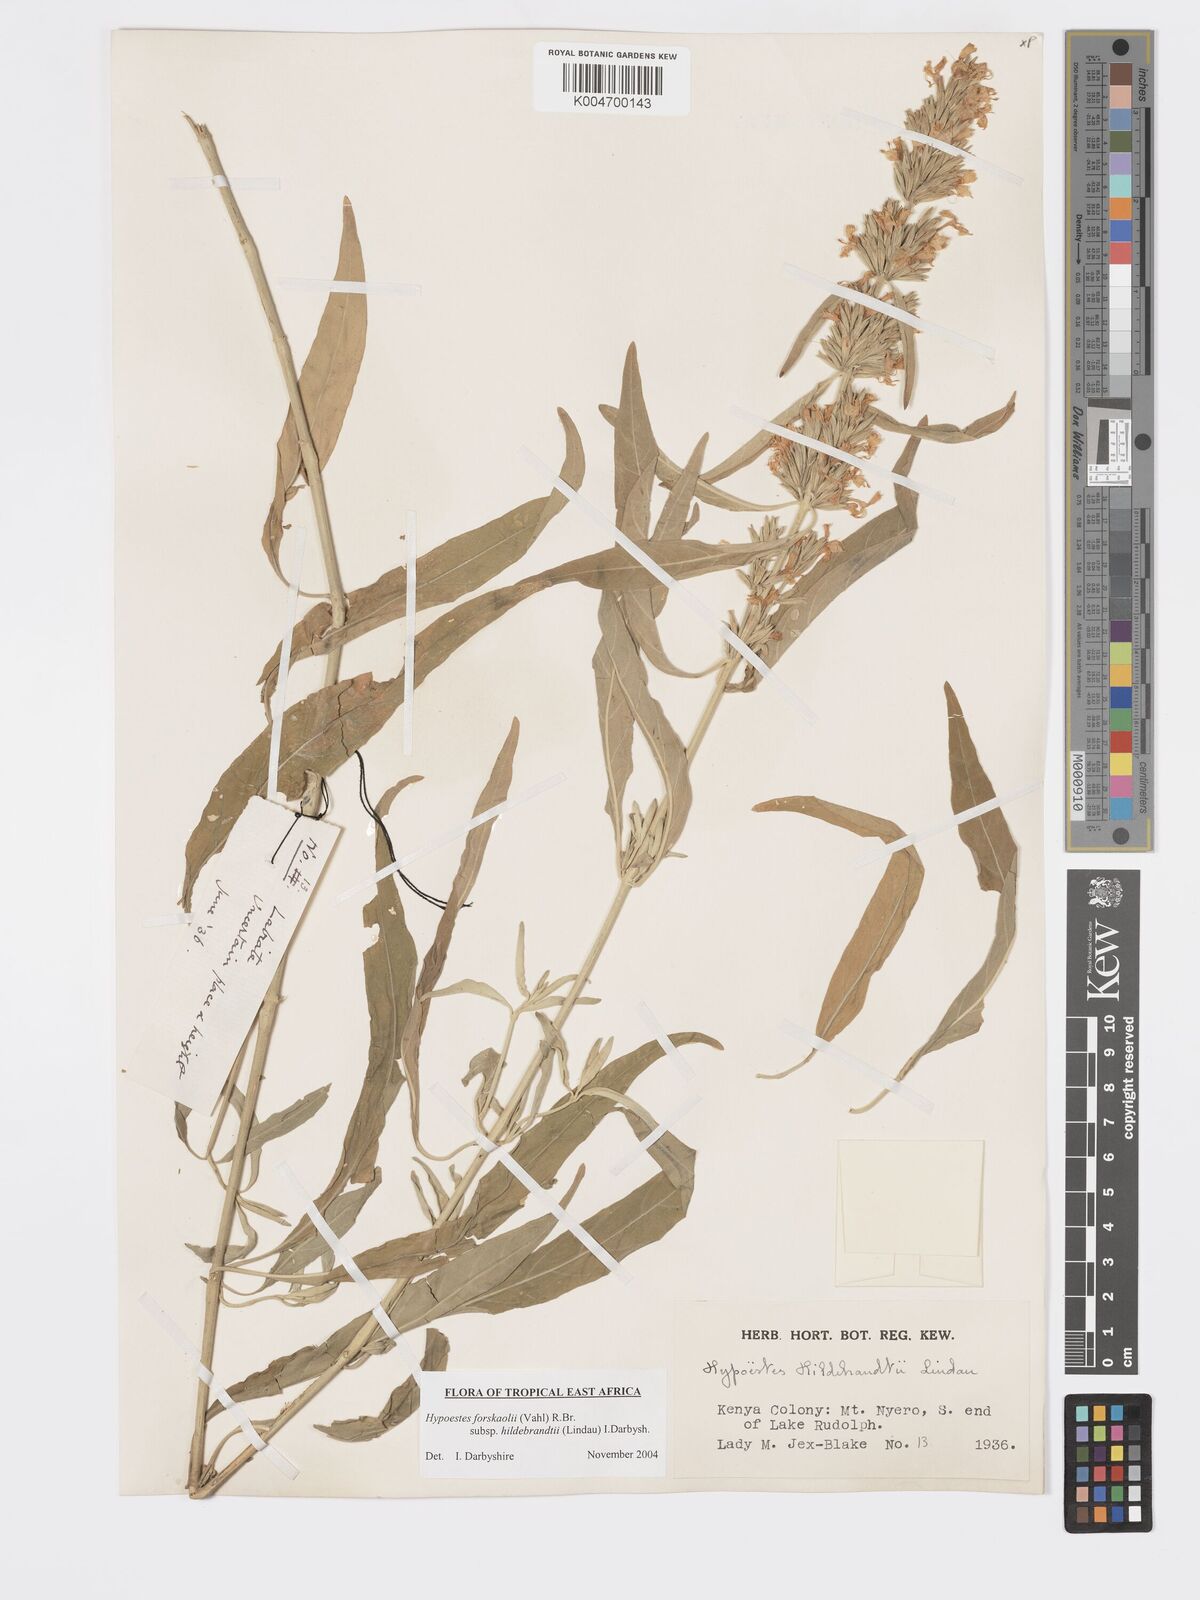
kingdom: Plantae
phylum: Tracheophyta
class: Magnoliopsida
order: Lamiales
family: Acanthaceae
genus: Hypoestes
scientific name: Hypoestes forskaolii
